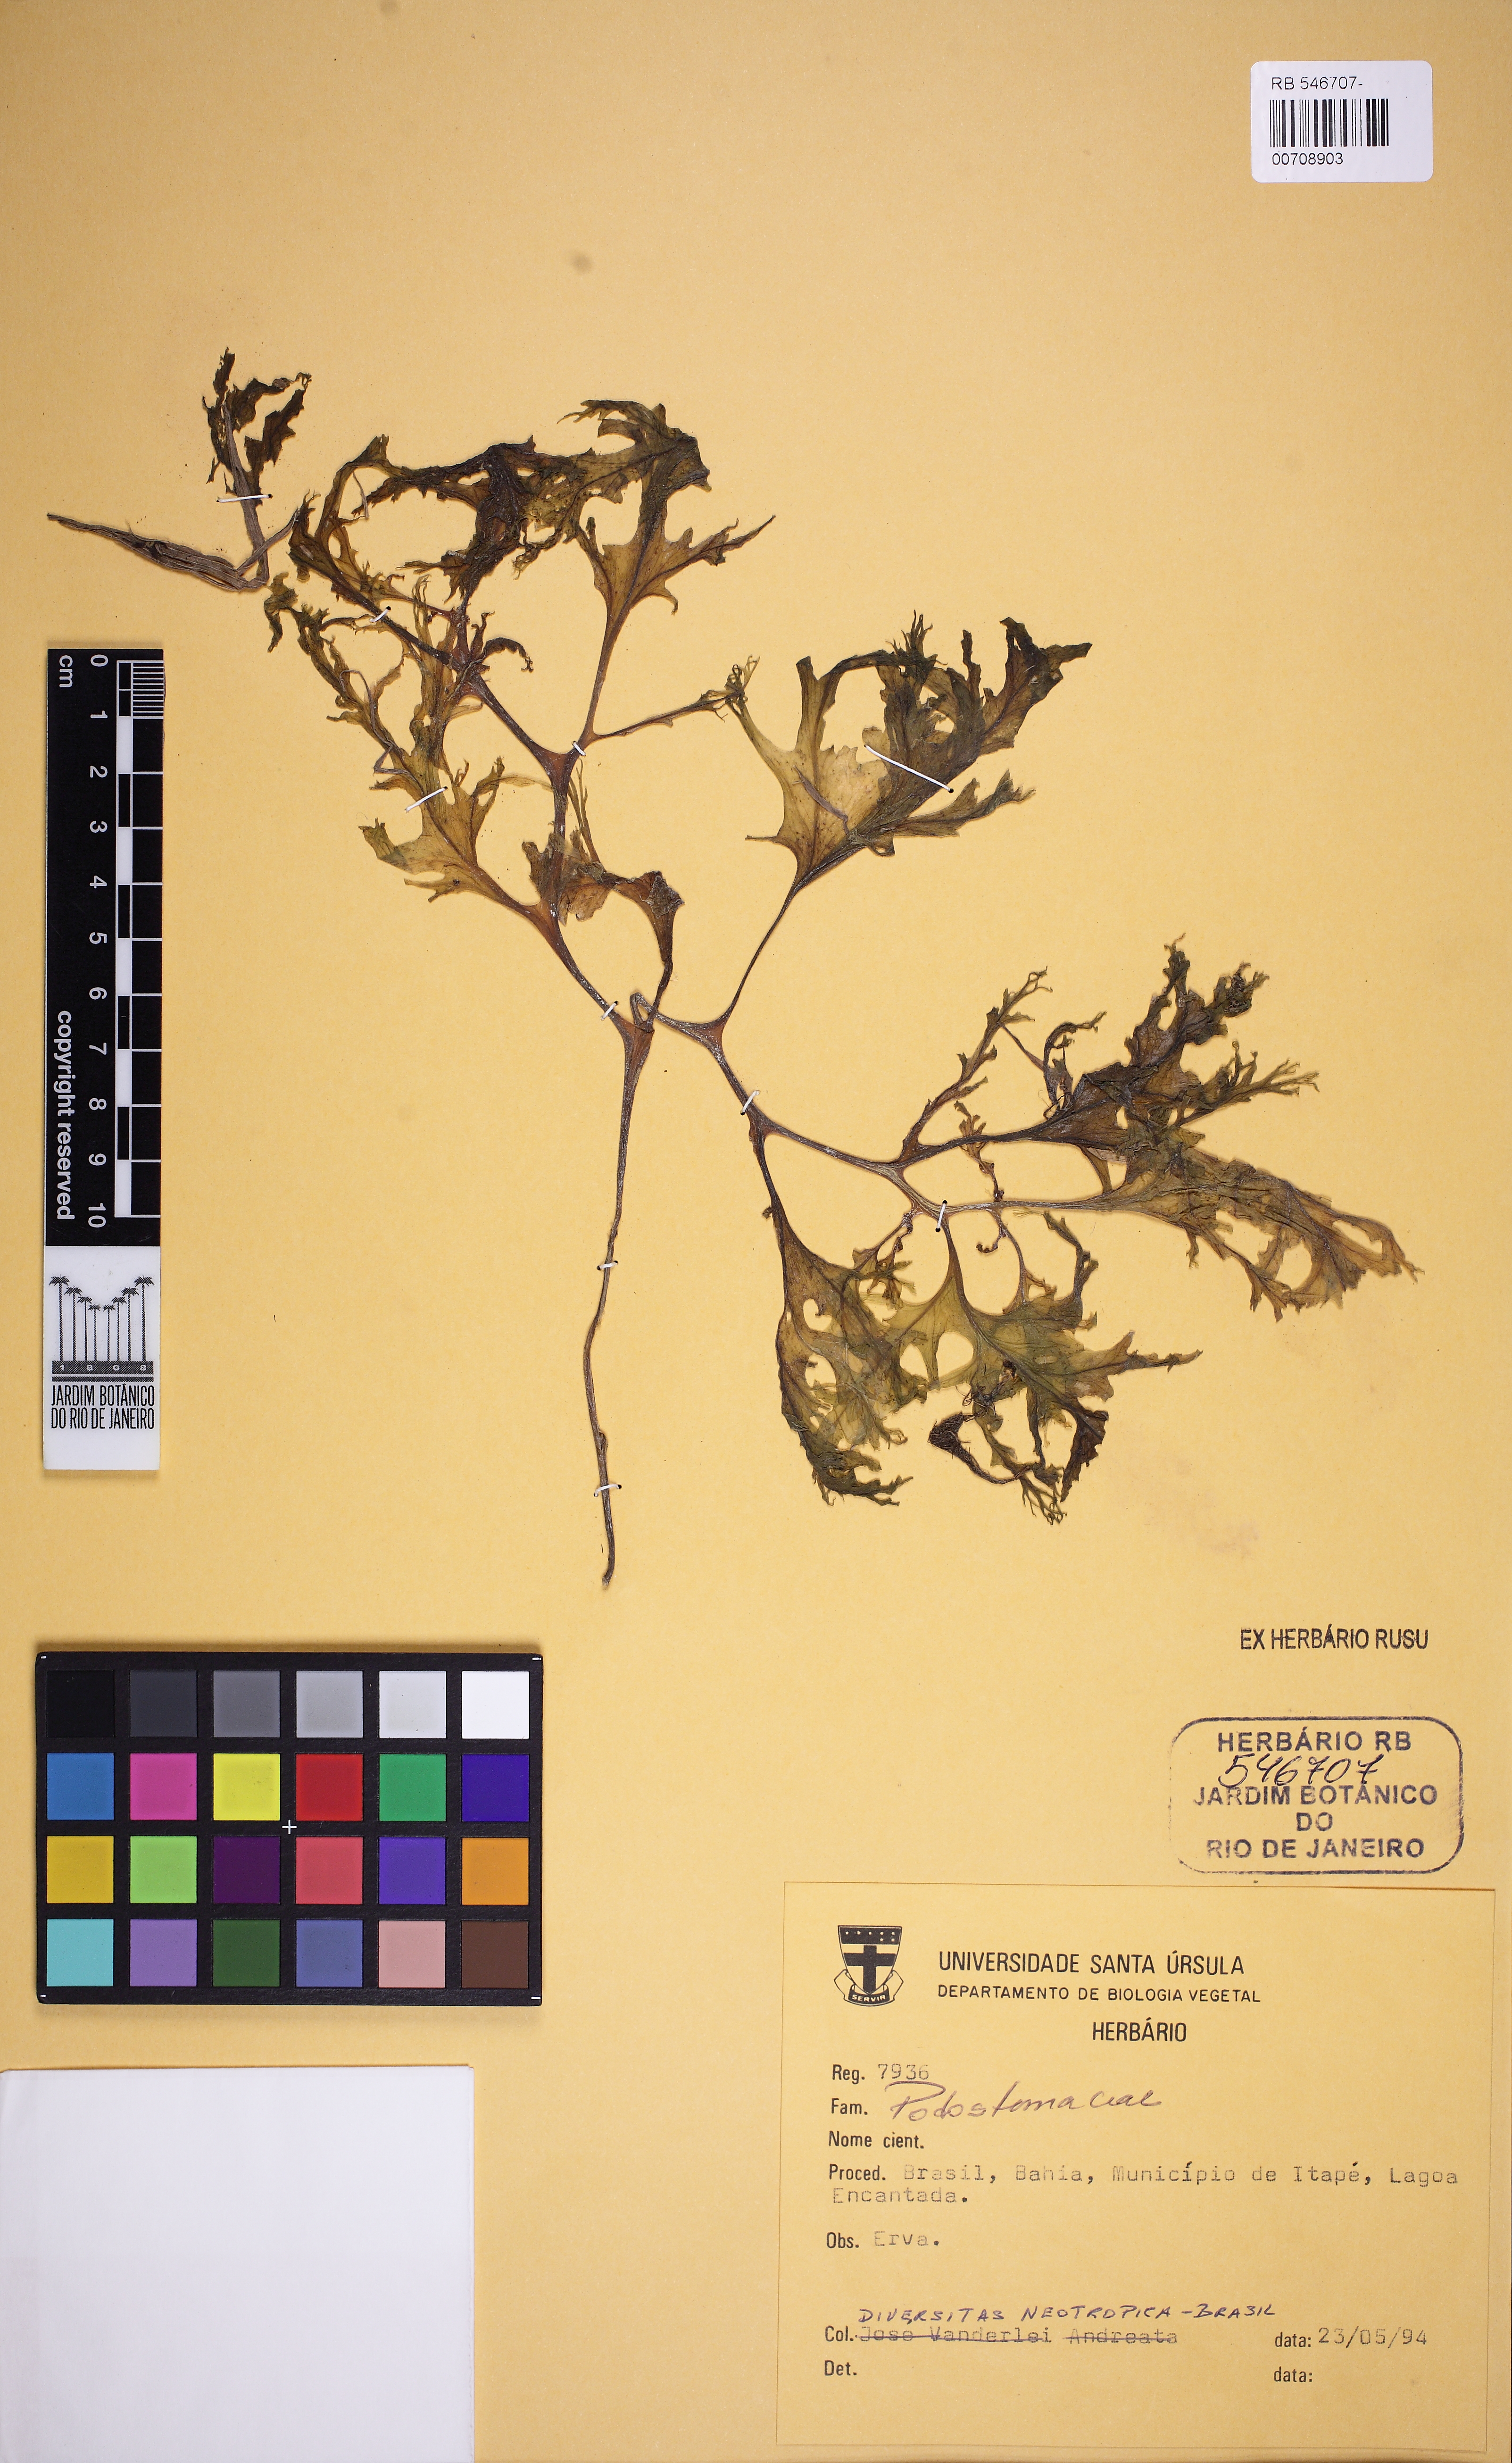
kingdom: Plantae
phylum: Tracheophyta
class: Magnoliopsida
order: Malpighiales
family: Podostemaceae
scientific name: Podostemaceae
